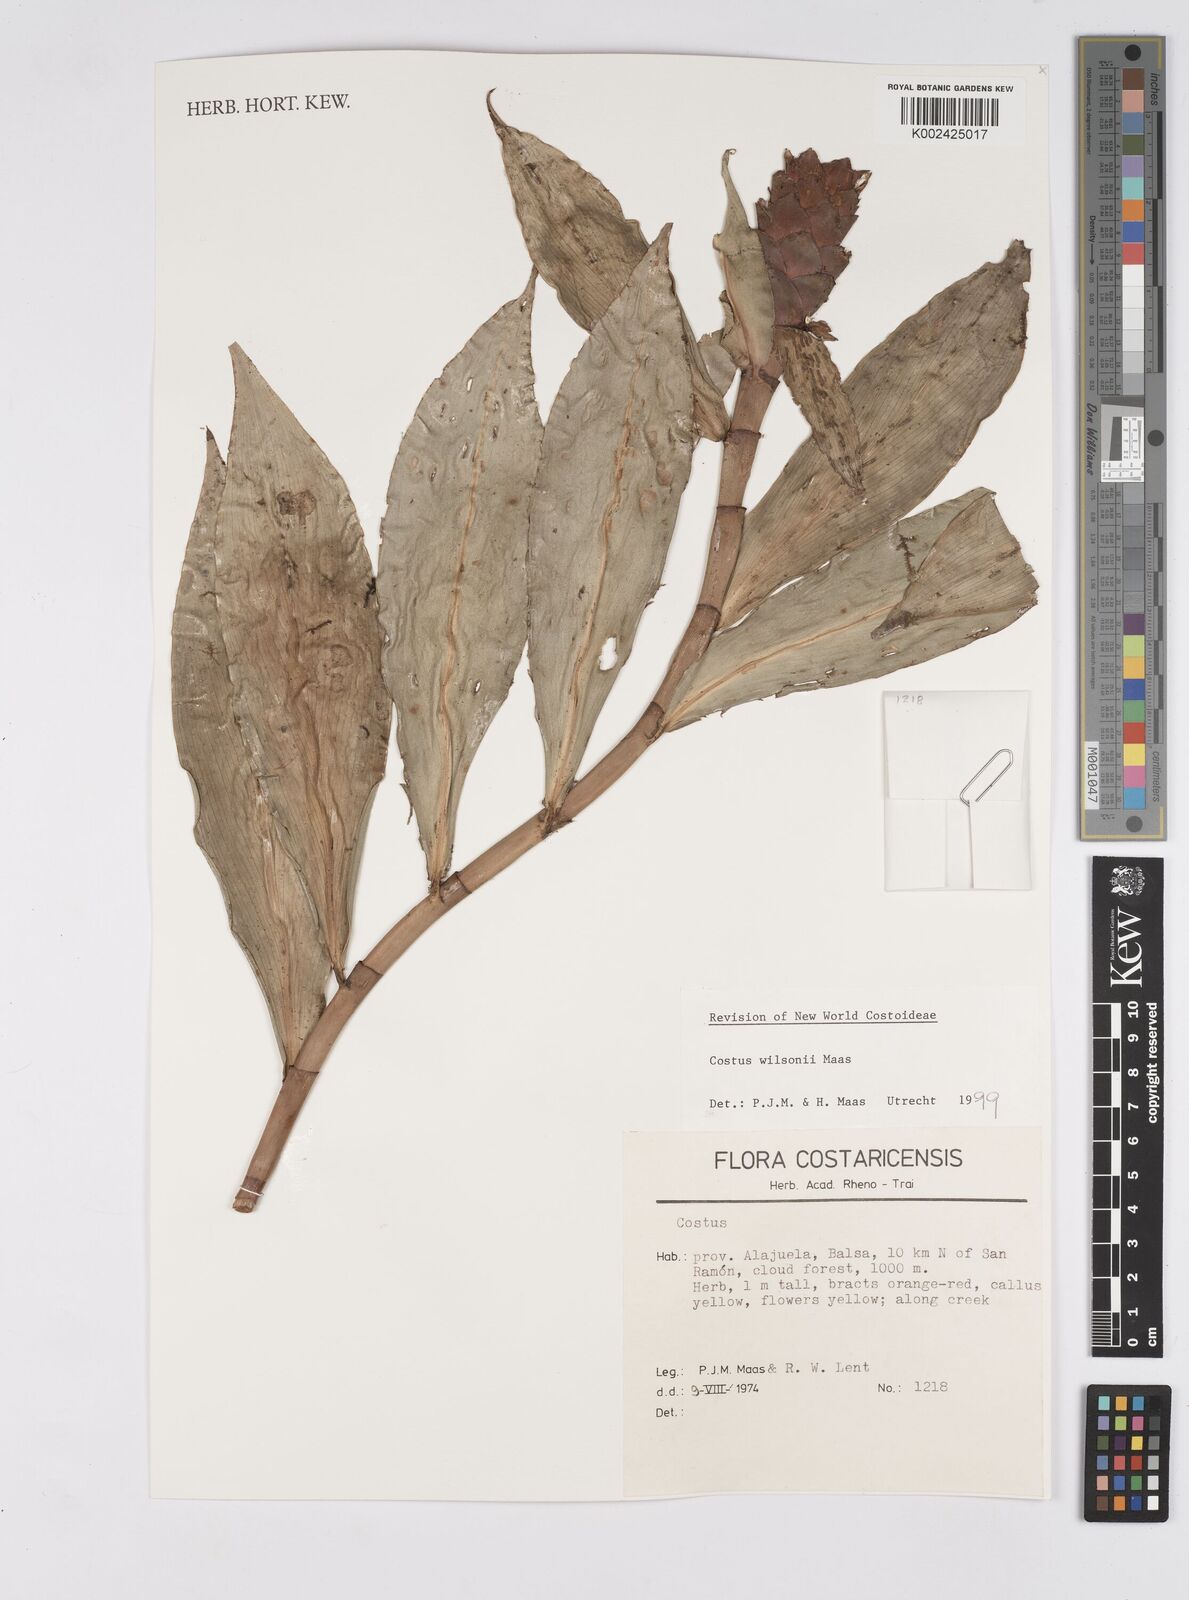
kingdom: Plantae
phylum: Tracheophyta
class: Liliopsida
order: Zingiberales
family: Costaceae
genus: Costus
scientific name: Costus wilsonii
